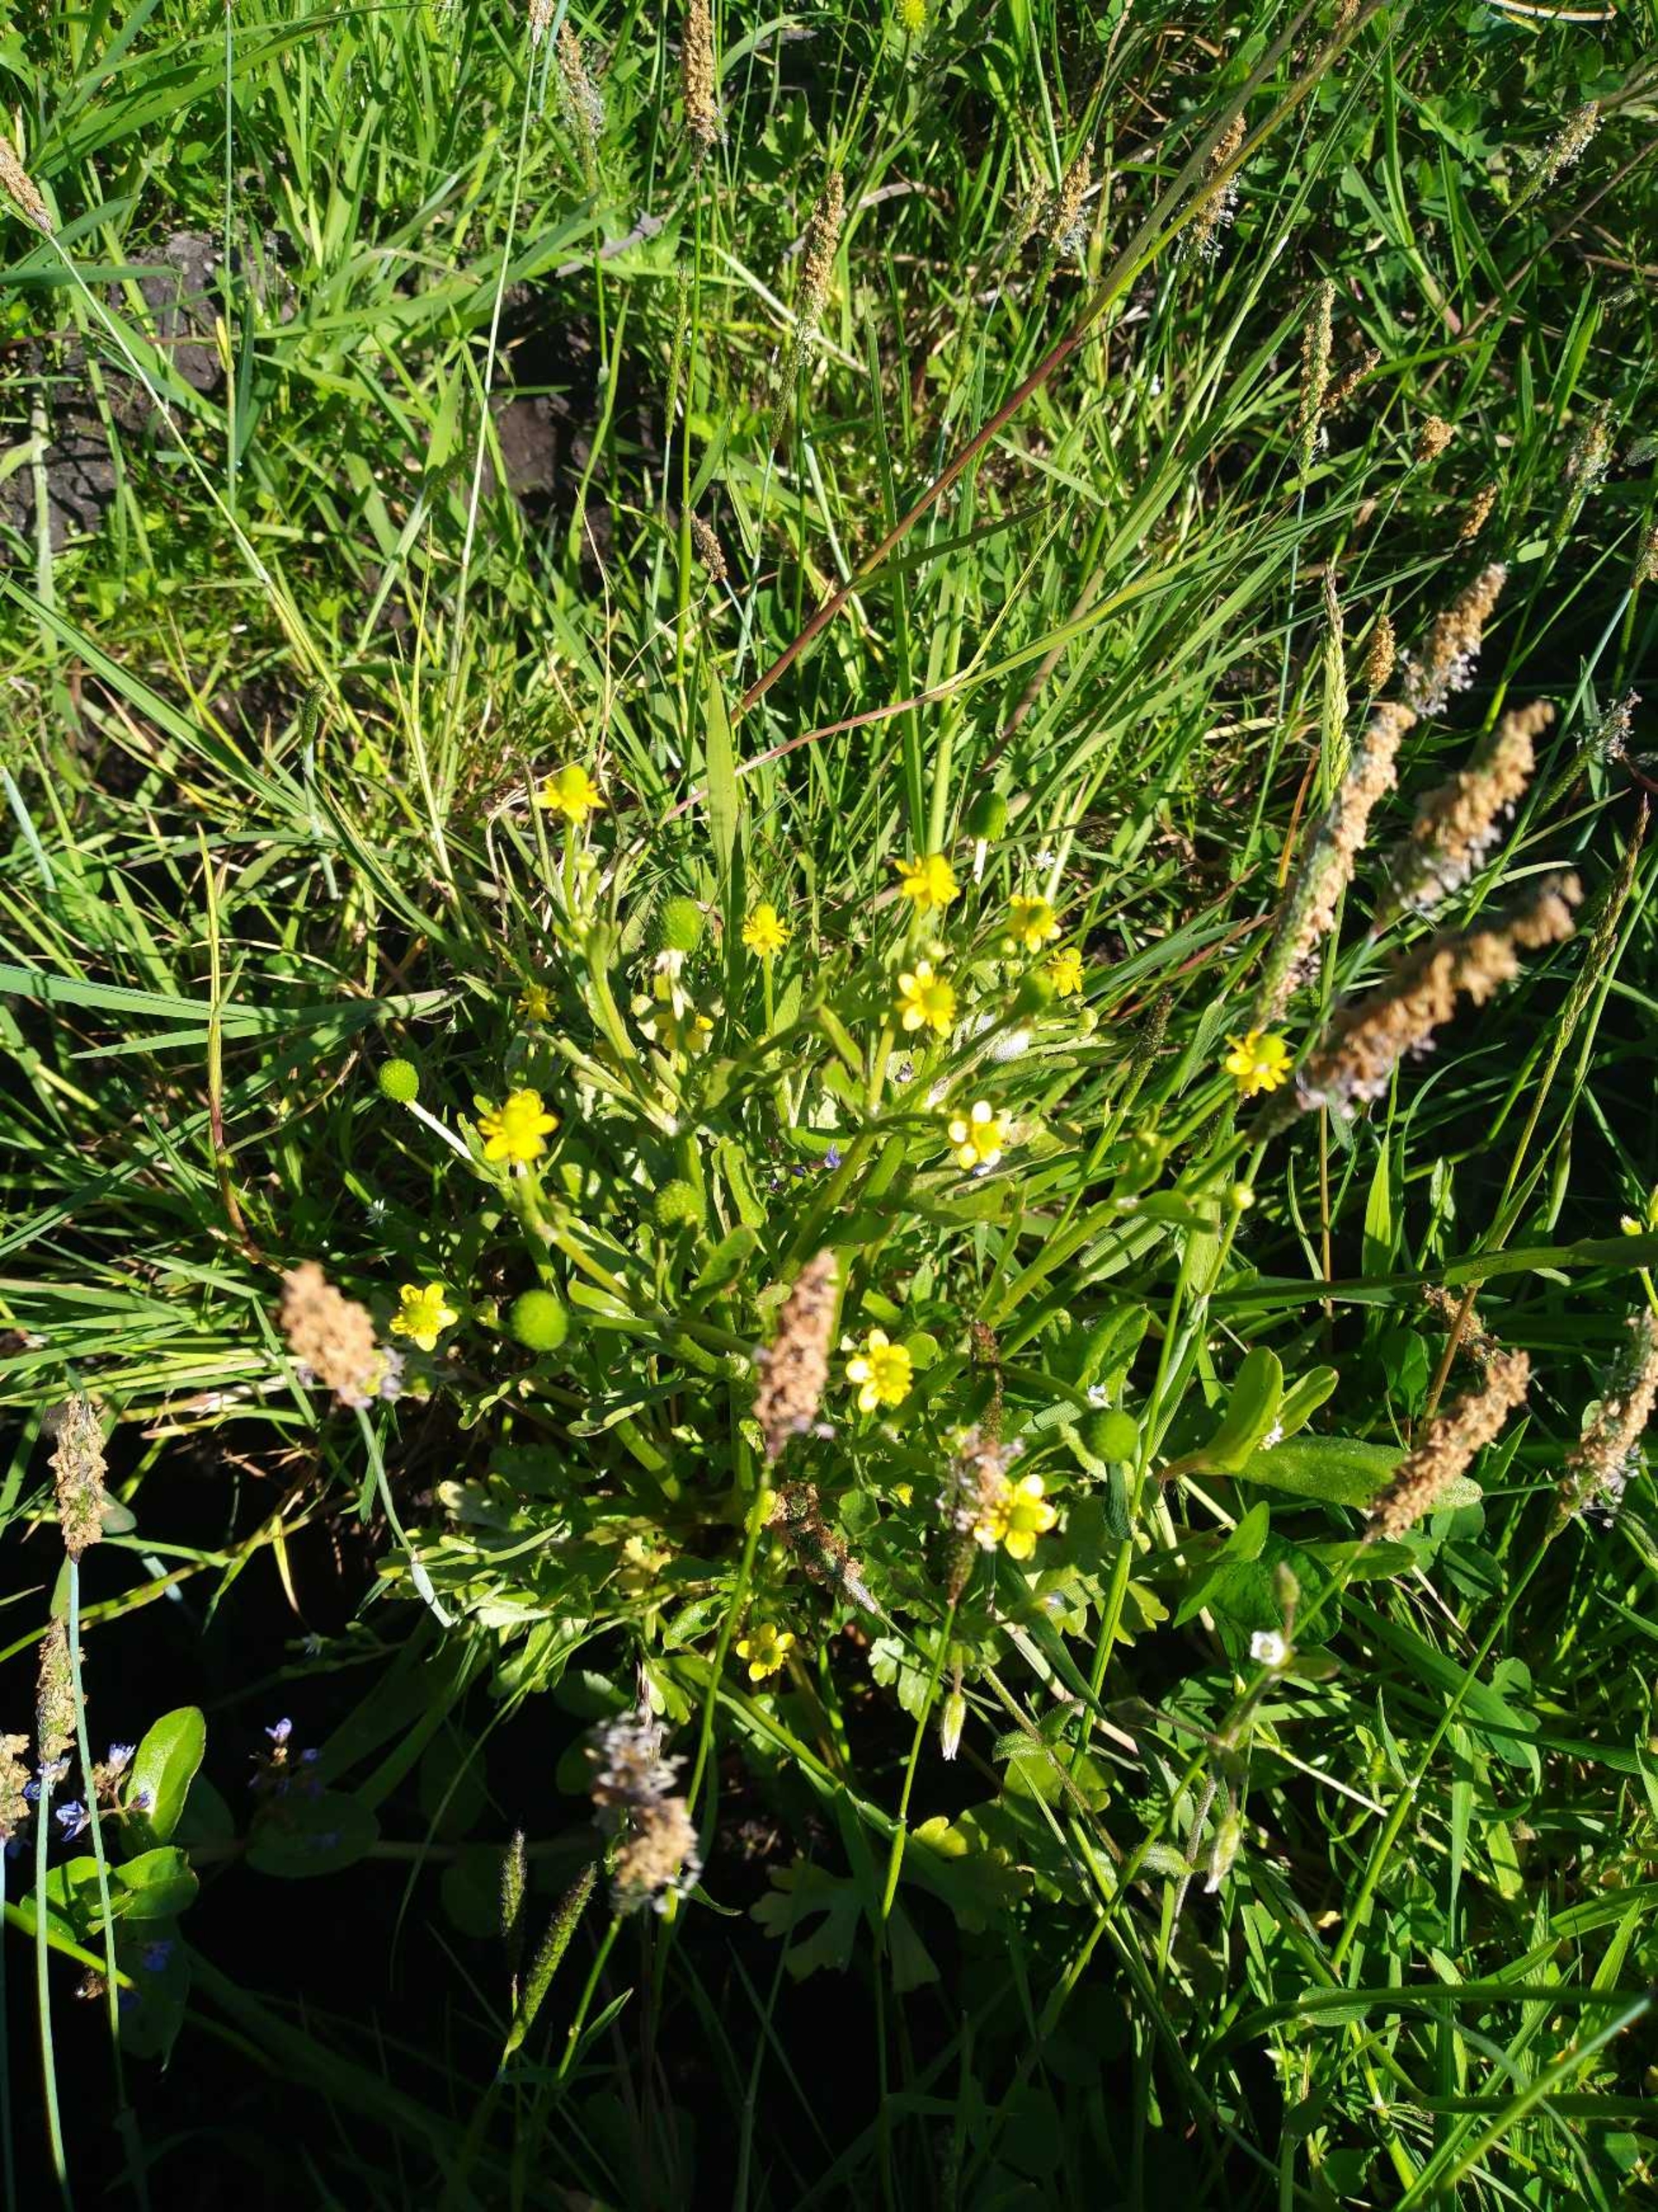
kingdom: Plantae
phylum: Tracheophyta
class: Magnoliopsida
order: Ranunculales
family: Ranunculaceae
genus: Ranunculus
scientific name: Ranunculus sceleratus
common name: Tigger-ranunkel
